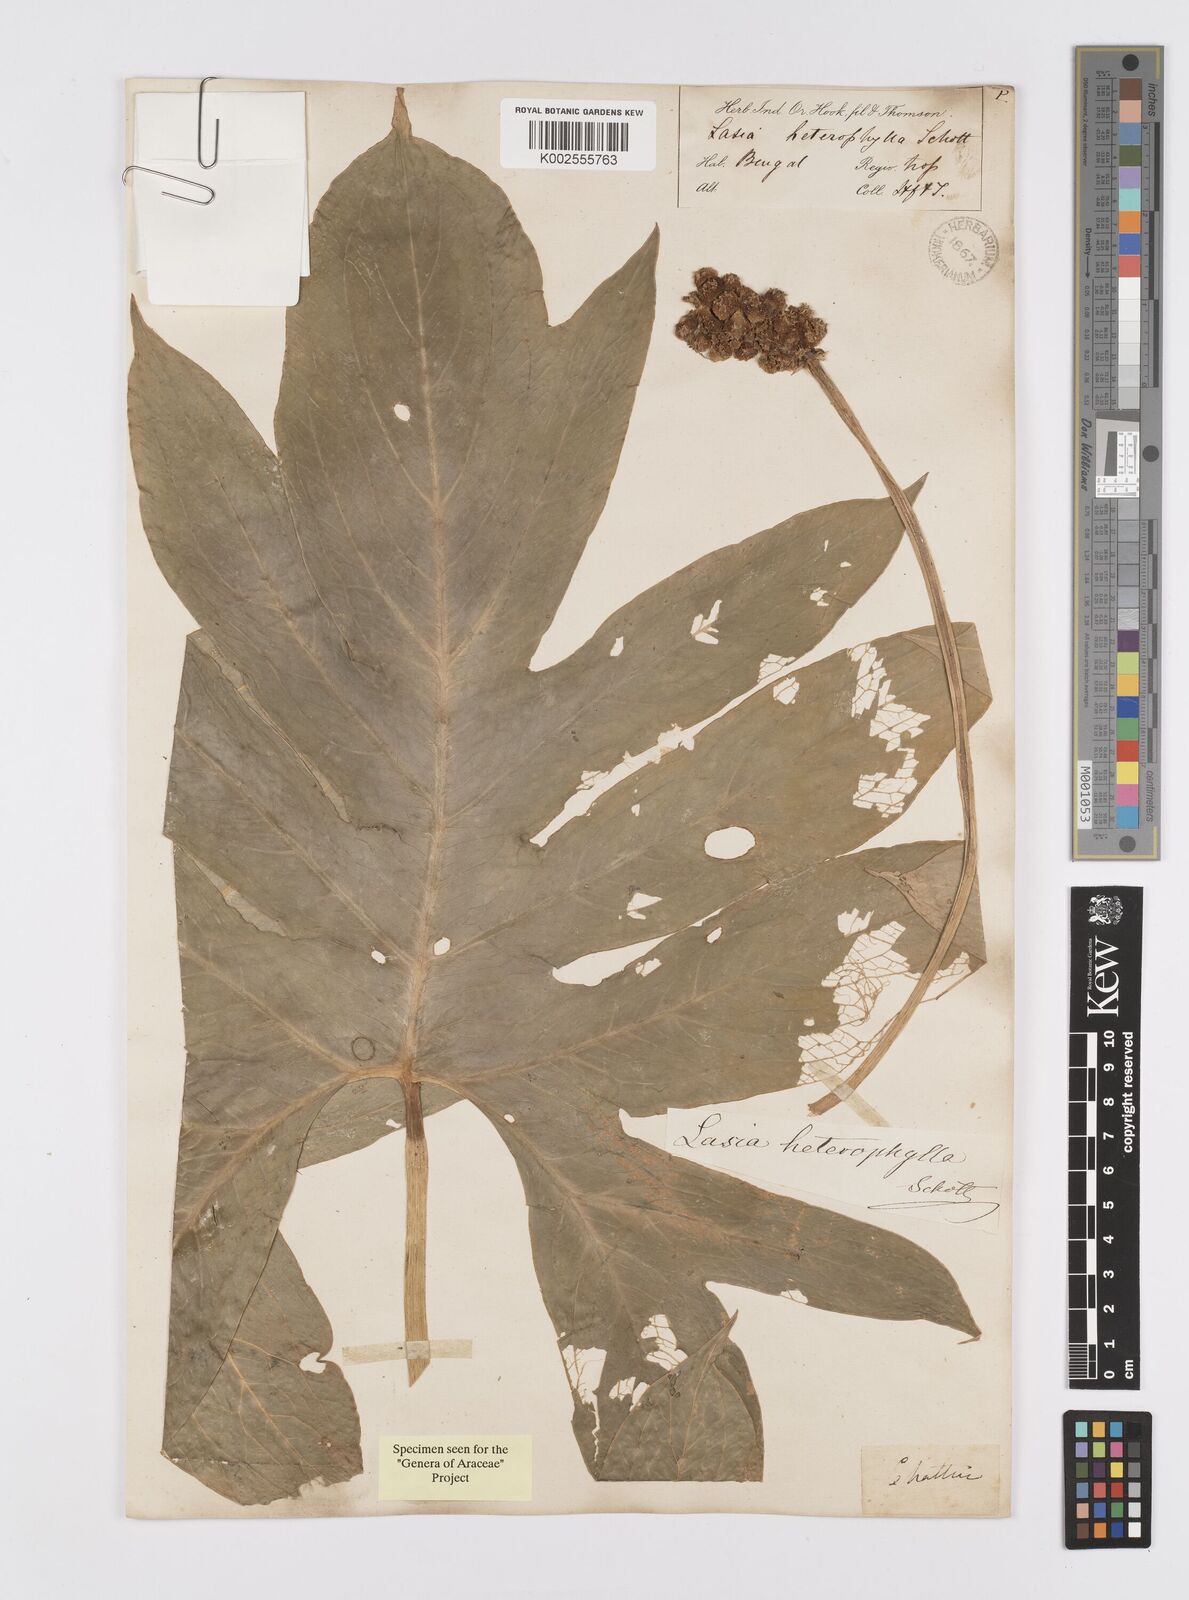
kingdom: Plantae
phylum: Tracheophyta
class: Liliopsida
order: Alismatales
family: Araceae
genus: Lasia
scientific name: Lasia spinosa
